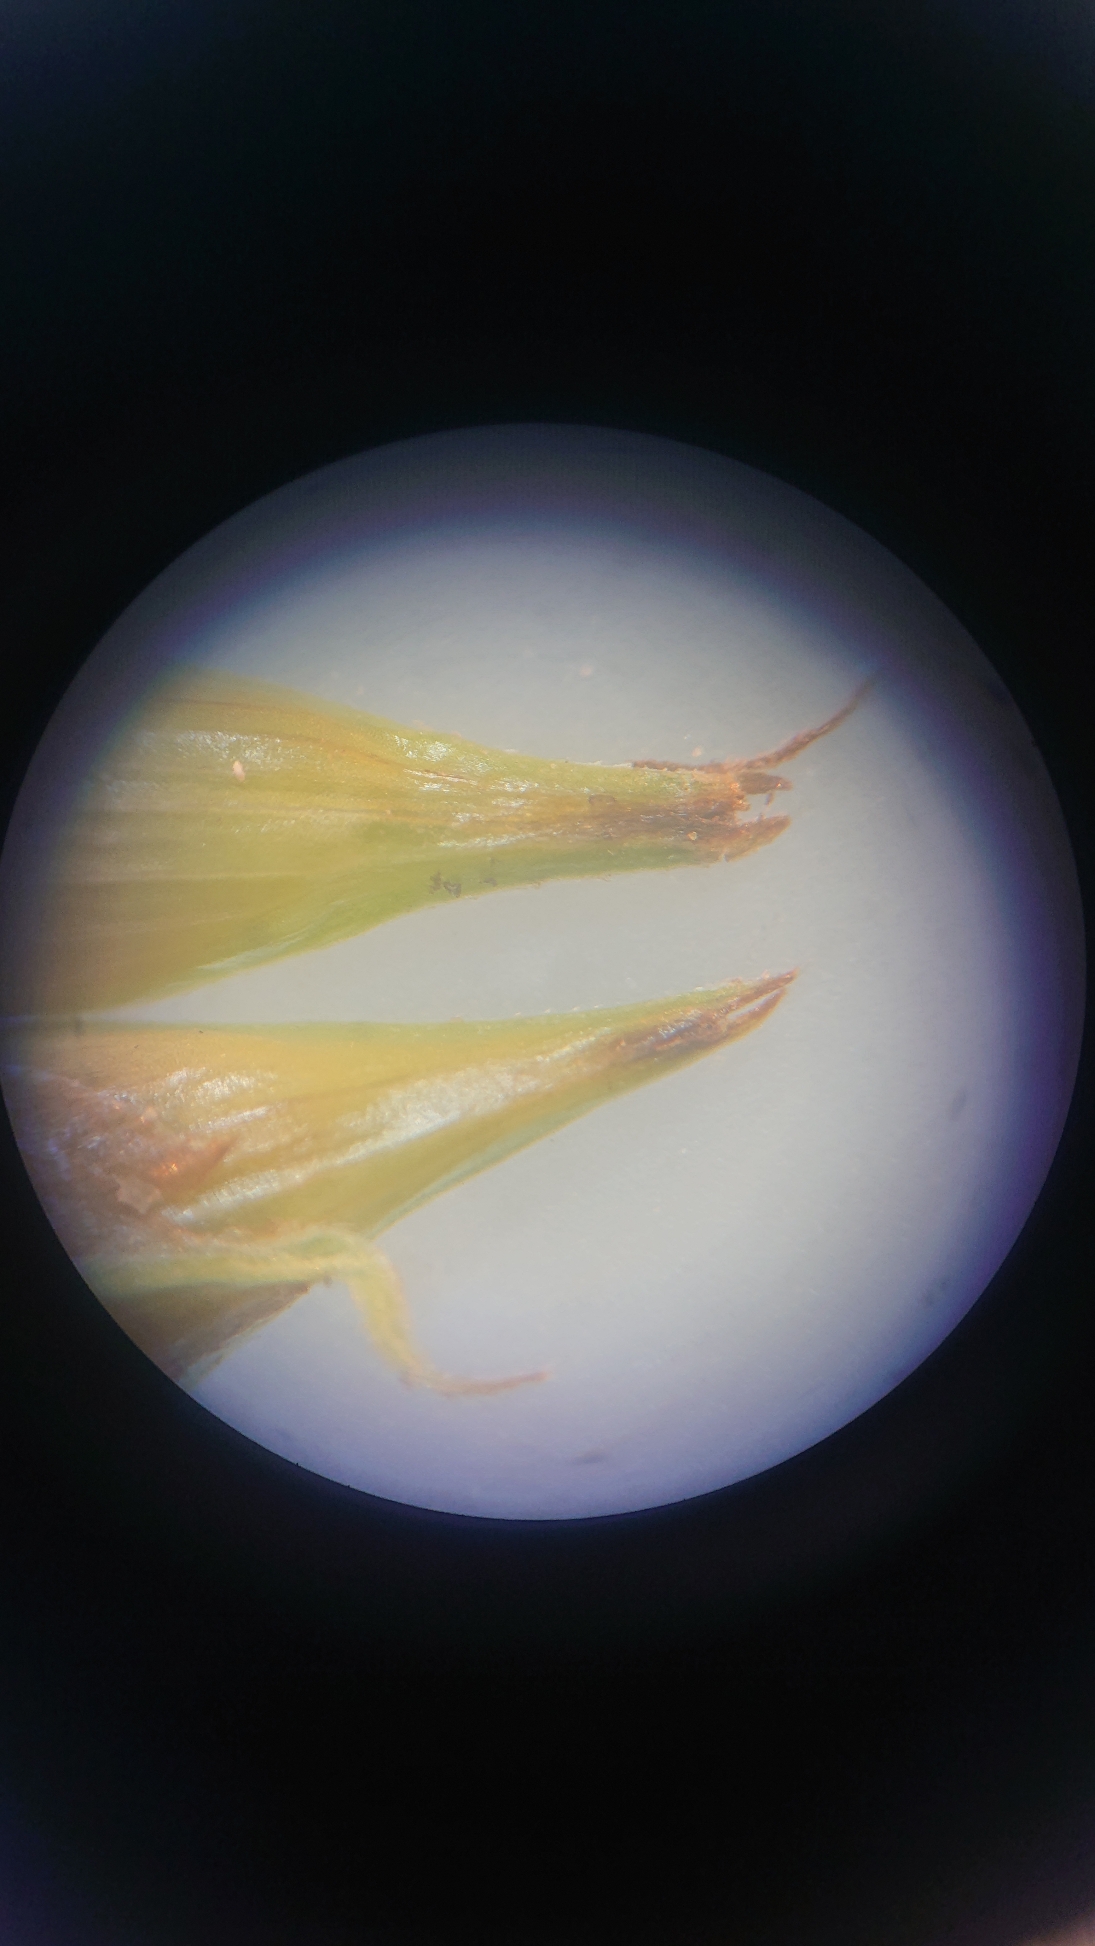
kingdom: Plantae
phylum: Tracheophyta
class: Liliopsida
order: Poales
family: Cyperaceae
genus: Carex
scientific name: Carex otrubae
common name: Sylt-star
